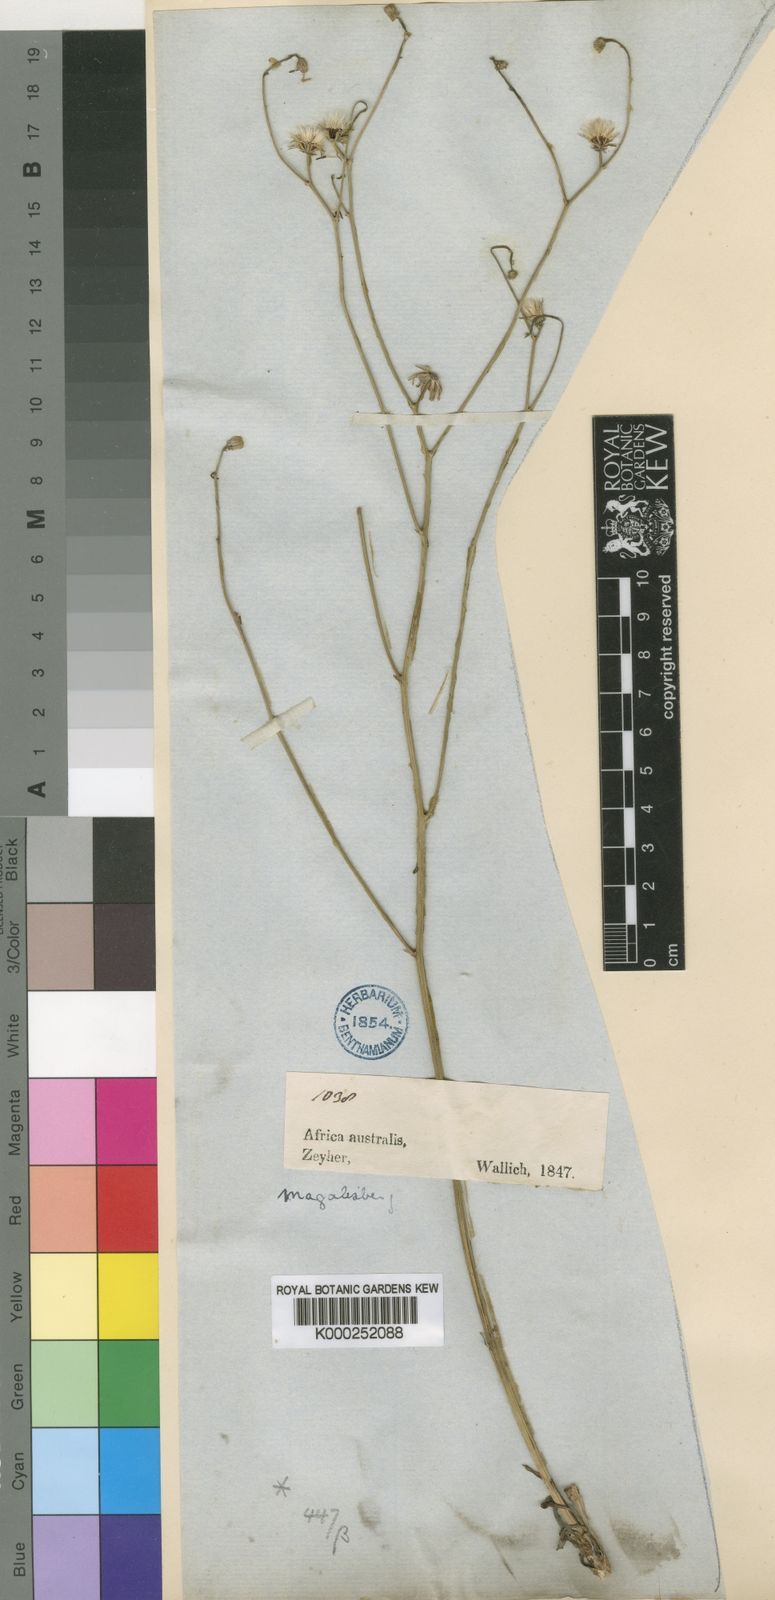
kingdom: Plantae
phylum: Tracheophyta
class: Magnoliopsida
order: Asterales
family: Asteraceae
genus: Tolpis
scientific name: Tolpis capensis
